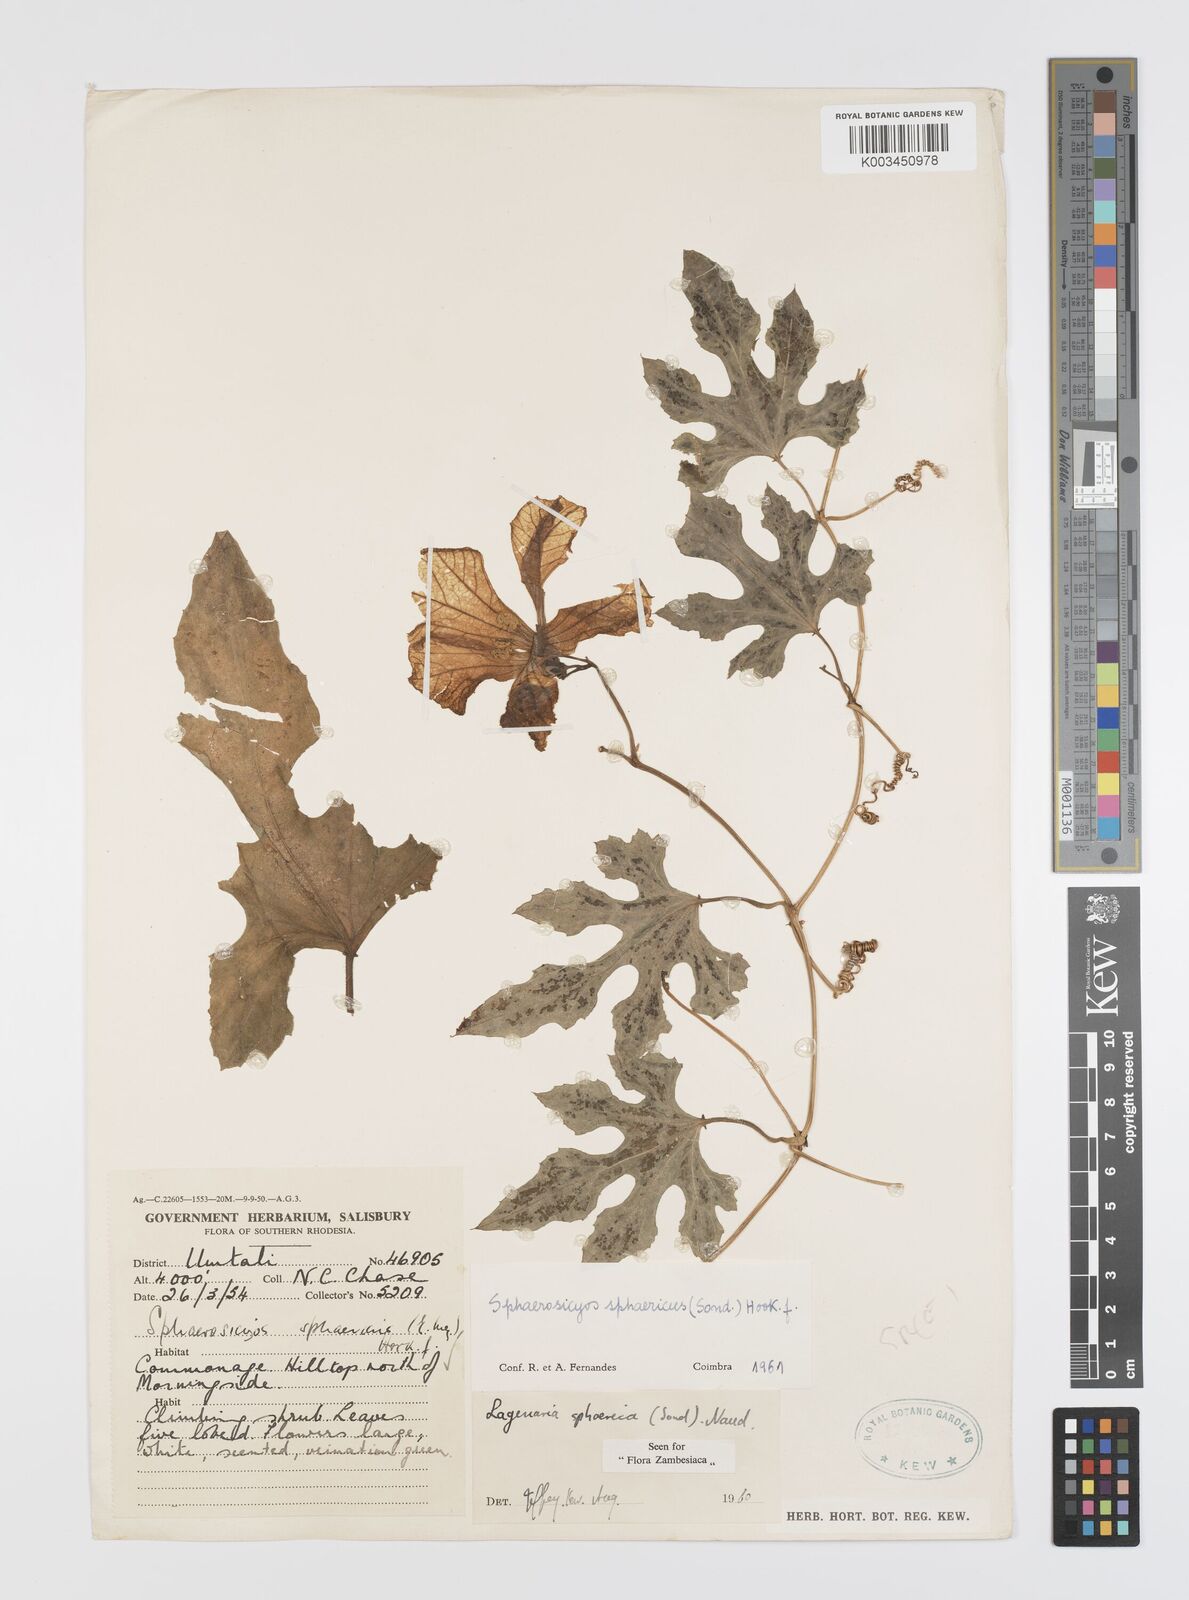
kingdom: Plantae
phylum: Tracheophyta
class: Magnoliopsida
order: Cucurbitales
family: Cucurbitaceae
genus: Lagenaria
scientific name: Lagenaria sphaerica
